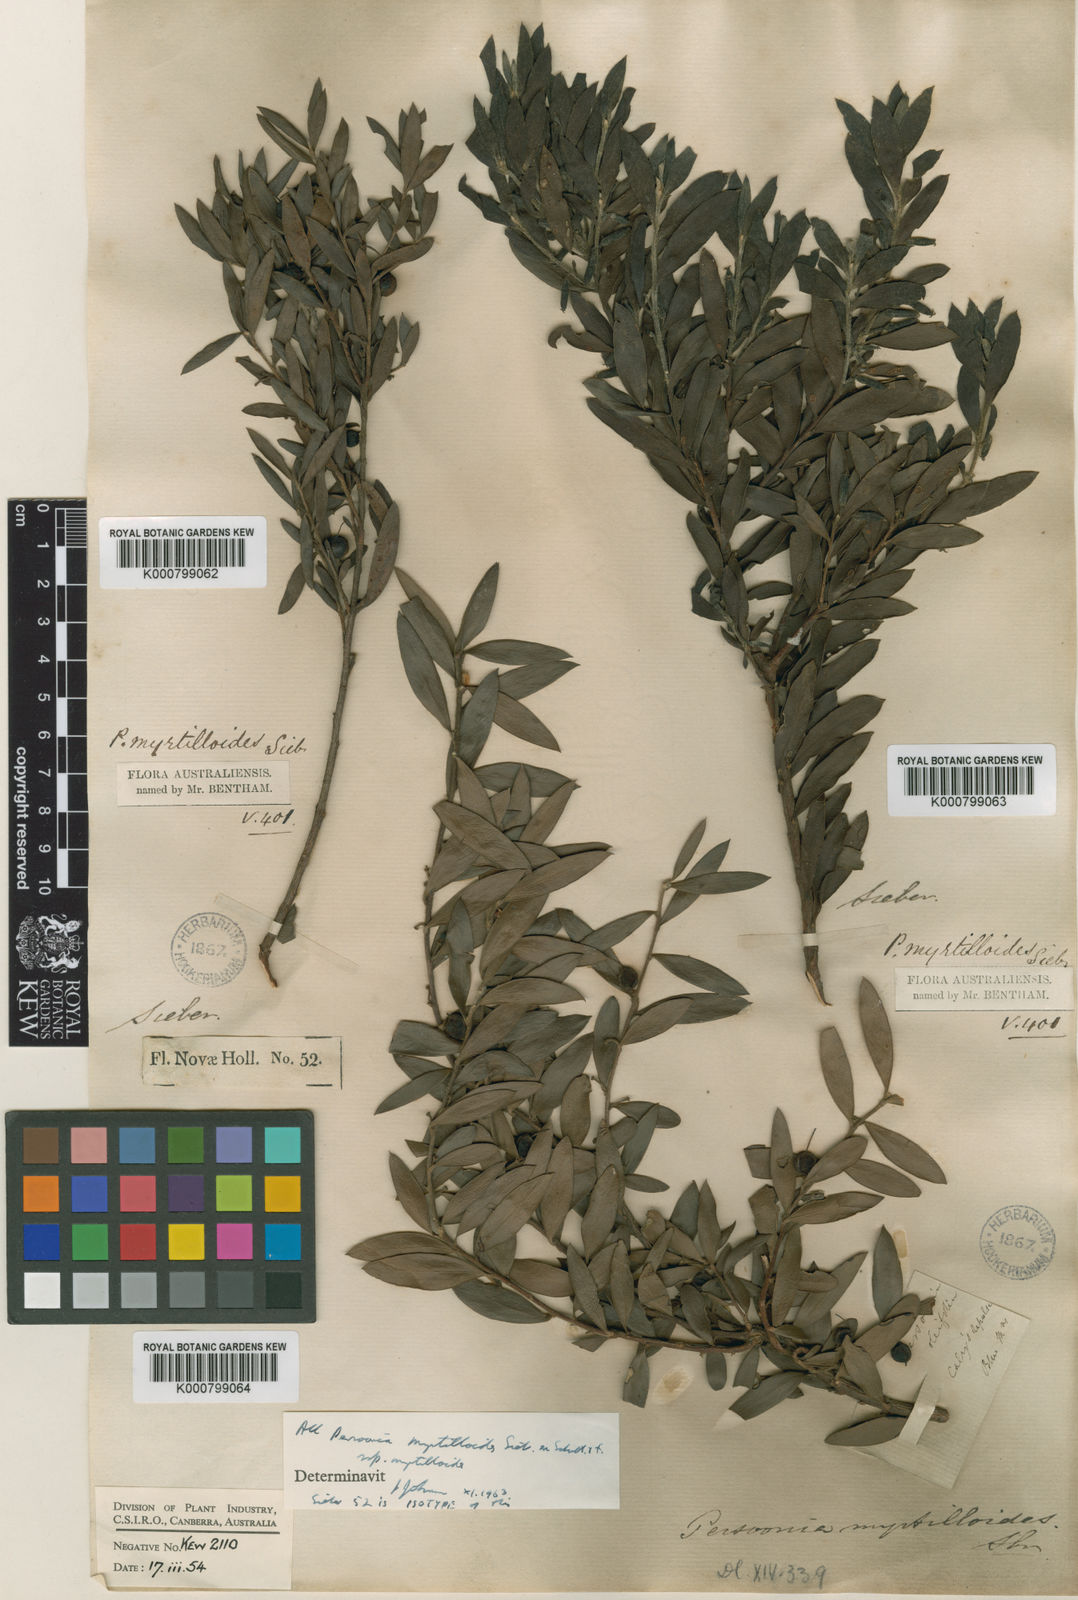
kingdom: Plantae
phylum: Tracheophyta
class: Magnoliopsida
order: Proteales
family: Proteaceae
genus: Persoonia
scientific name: Persoonia
